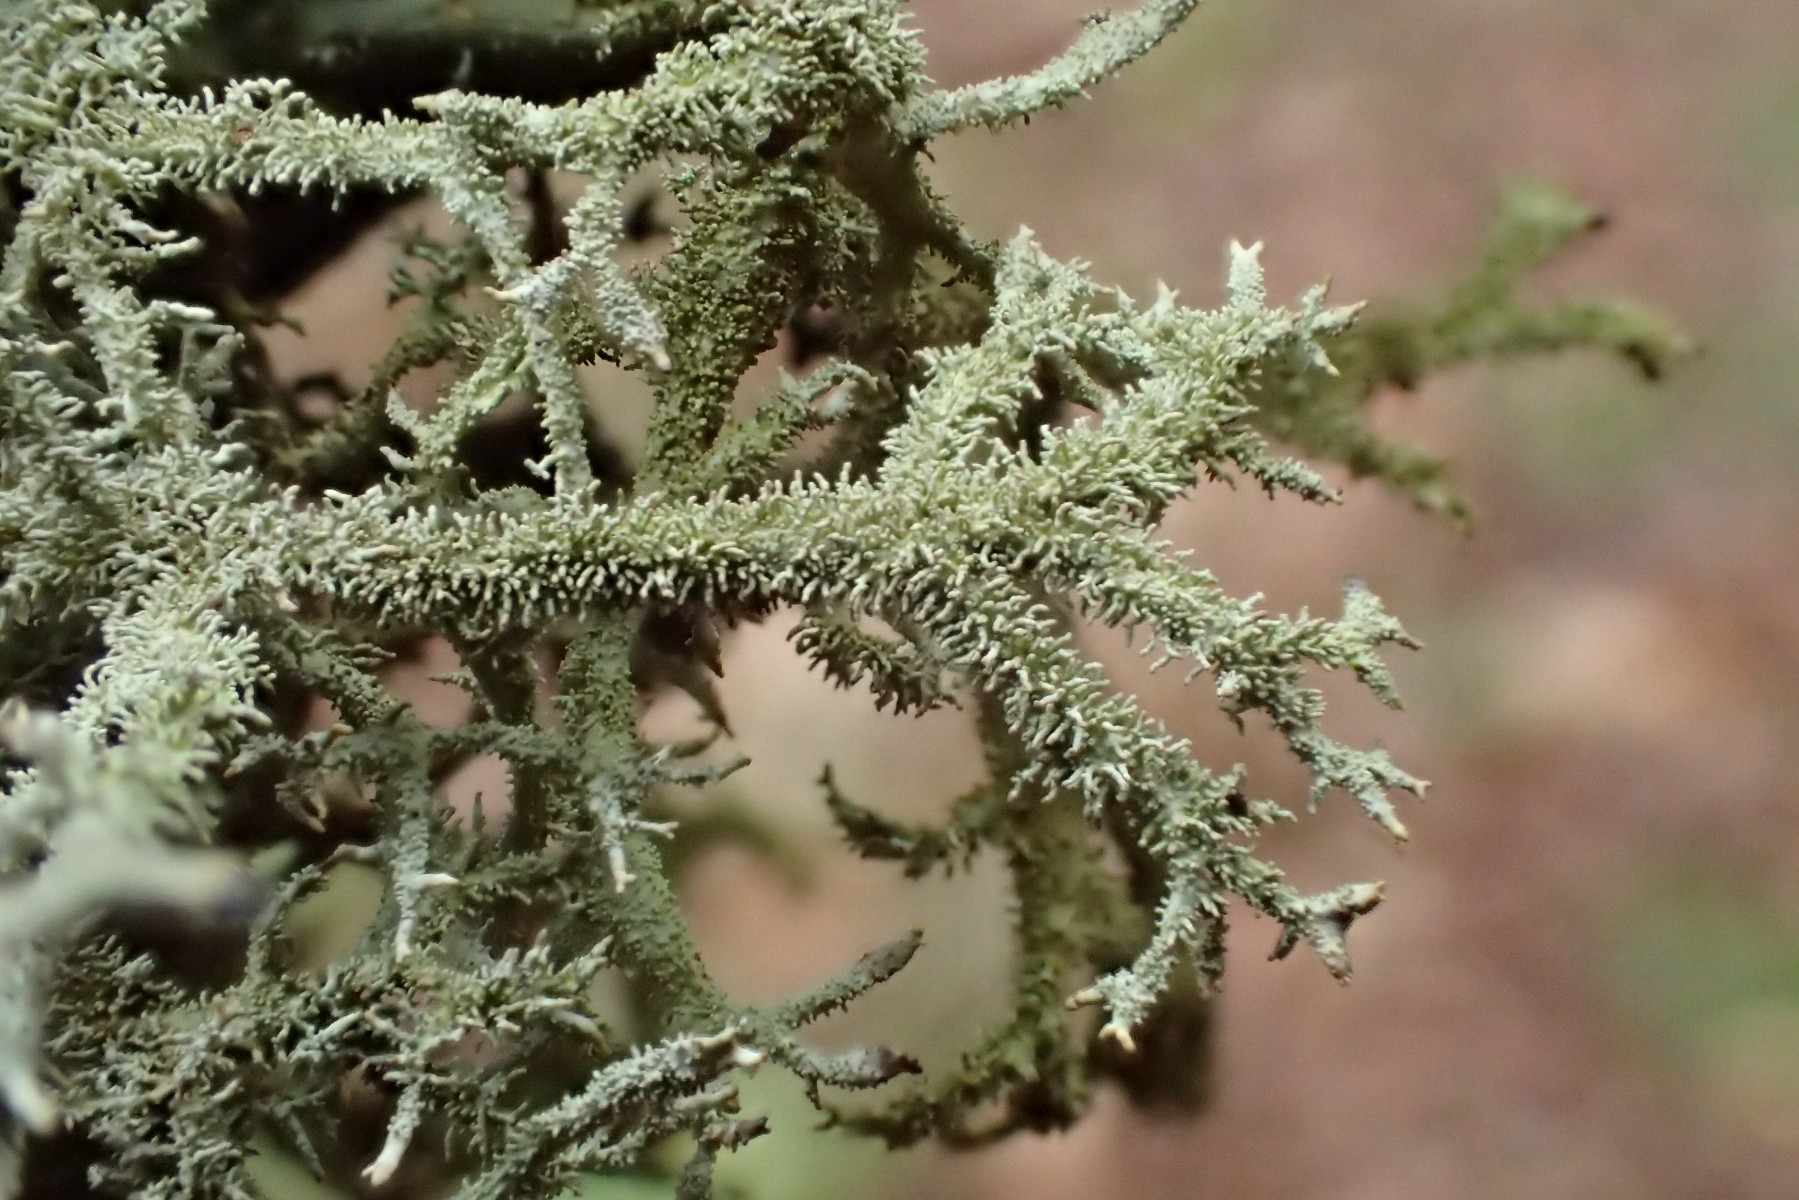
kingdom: Fungi
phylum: Ascomycota
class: Lecanoromycetes
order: Lecanorales
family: Parmeliaceae
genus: Pseudevernia
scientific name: Pseudevernia furfuracea
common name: grå fyrrelav
